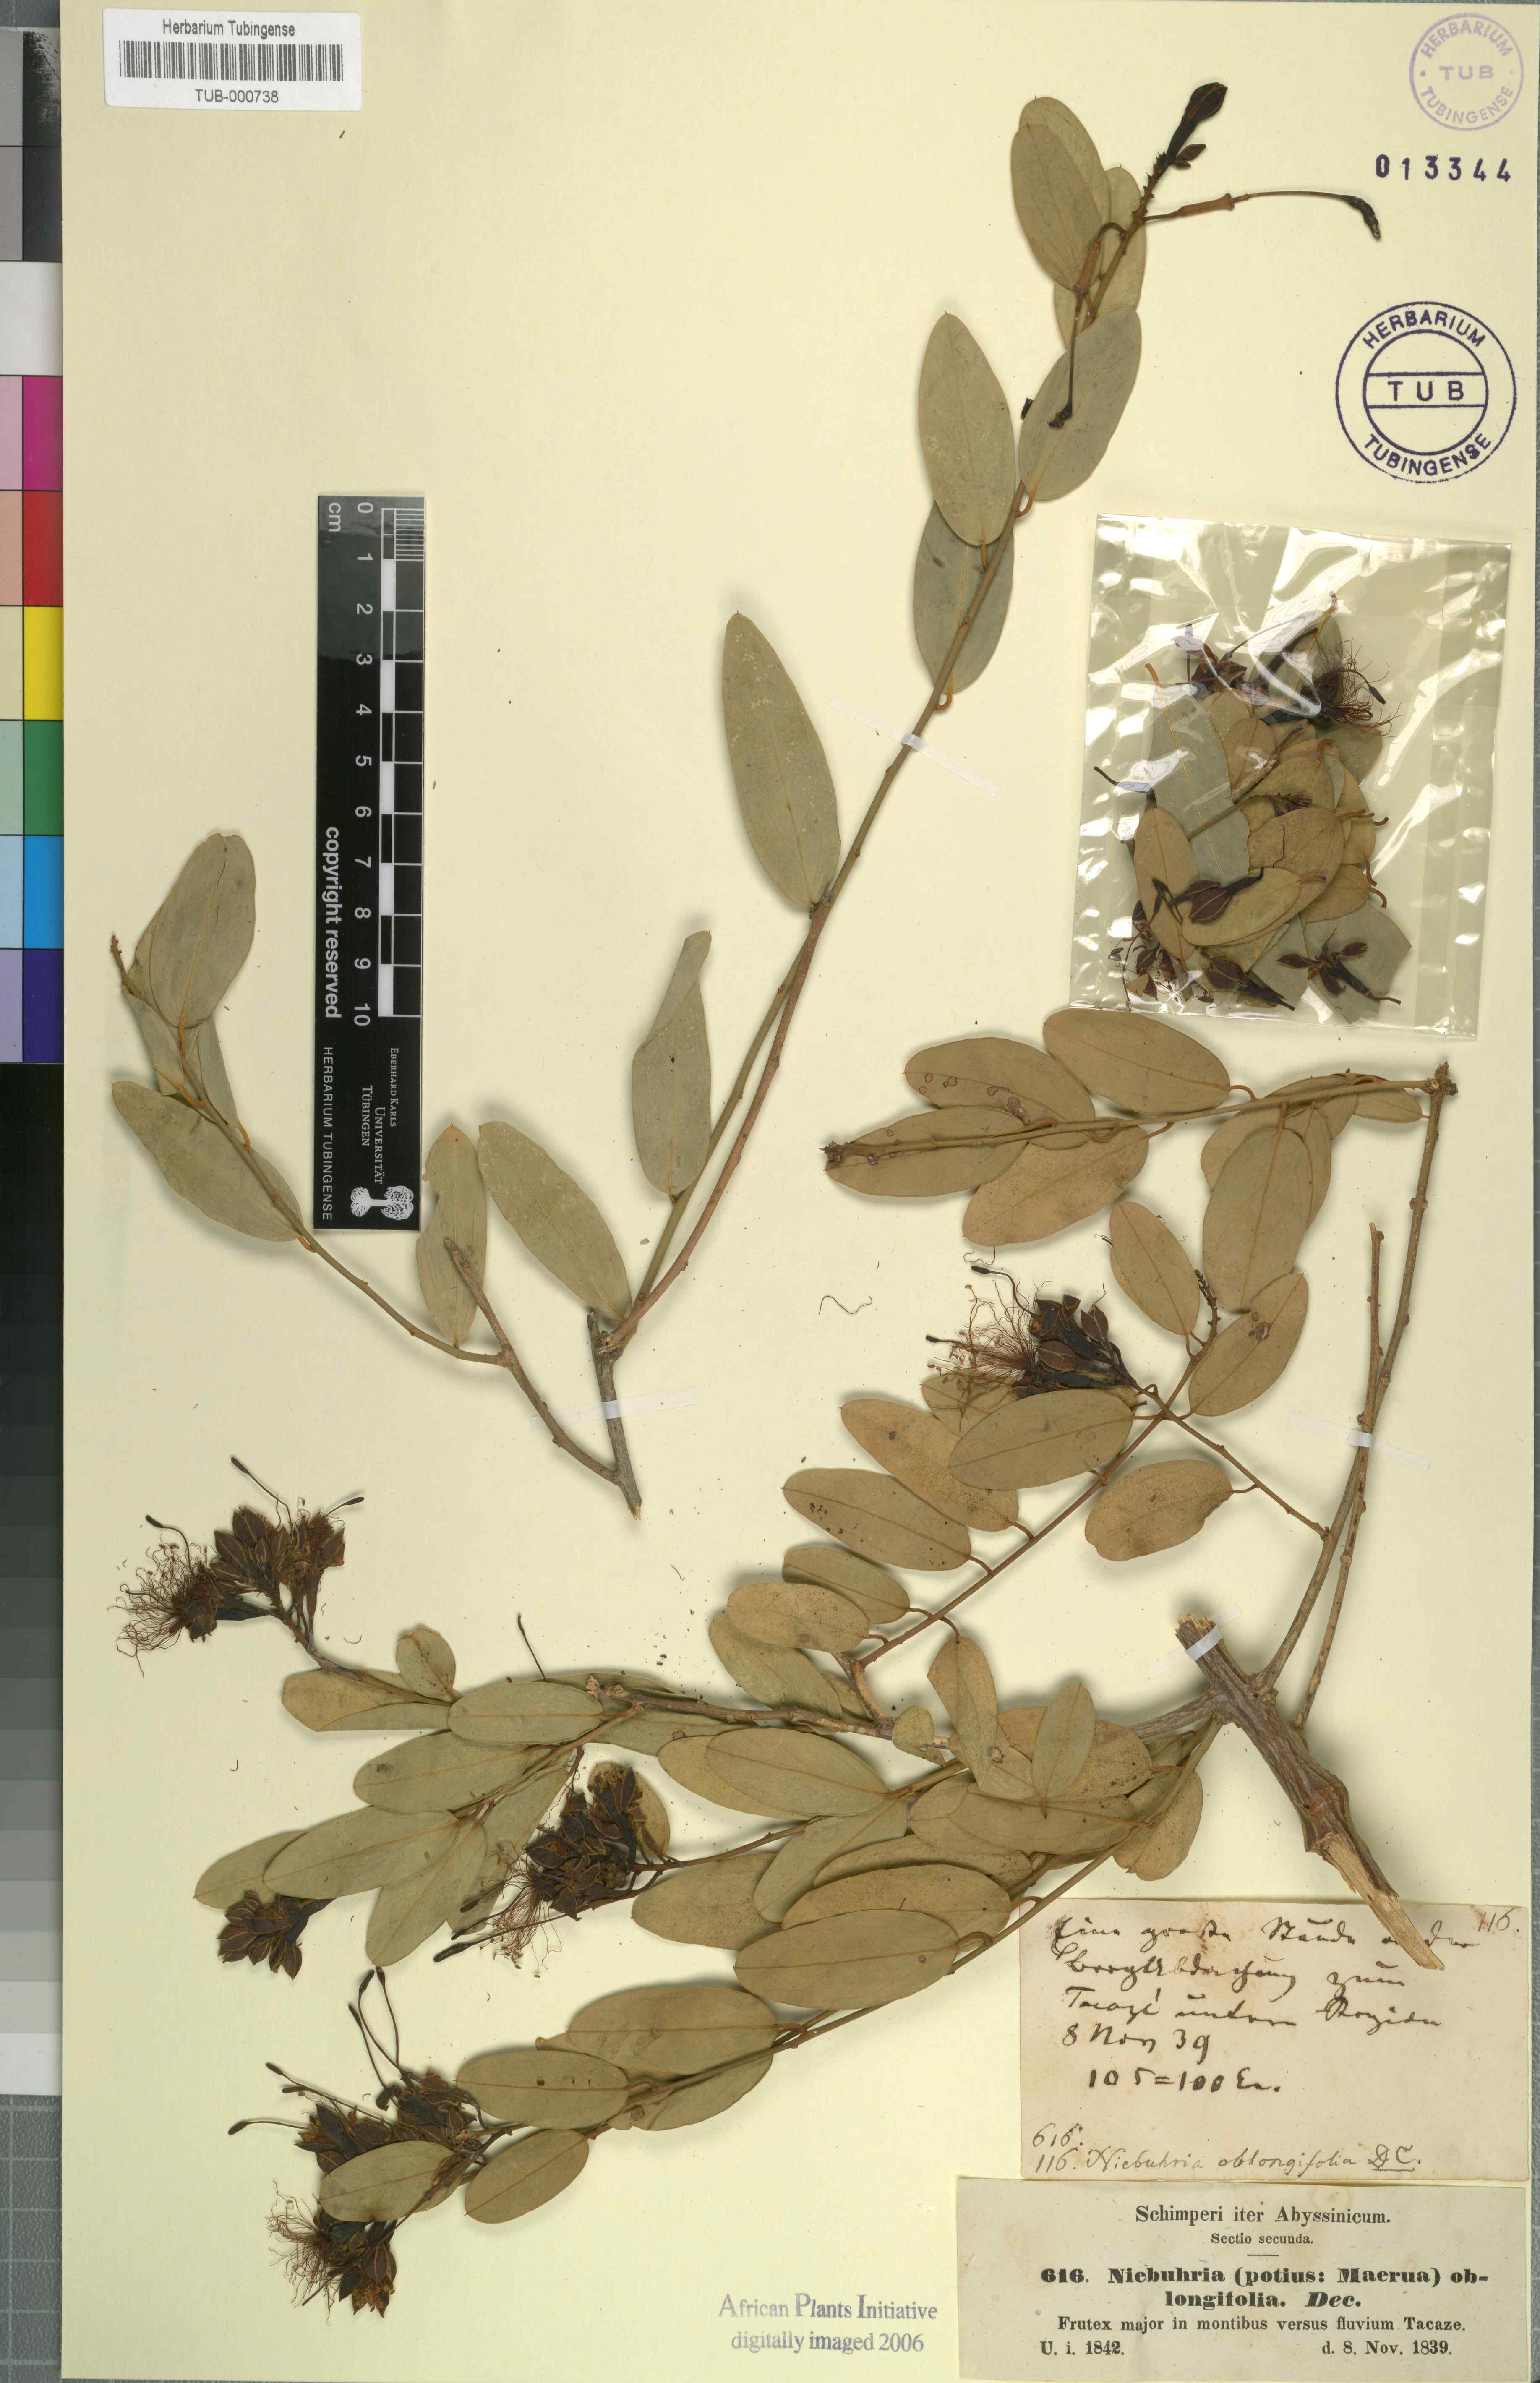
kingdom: Plantae
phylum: Tracheophyta
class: Magnoliopsida
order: Brassicales
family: Capparaceae
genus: Maerua
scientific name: Maerua oblongifolia
